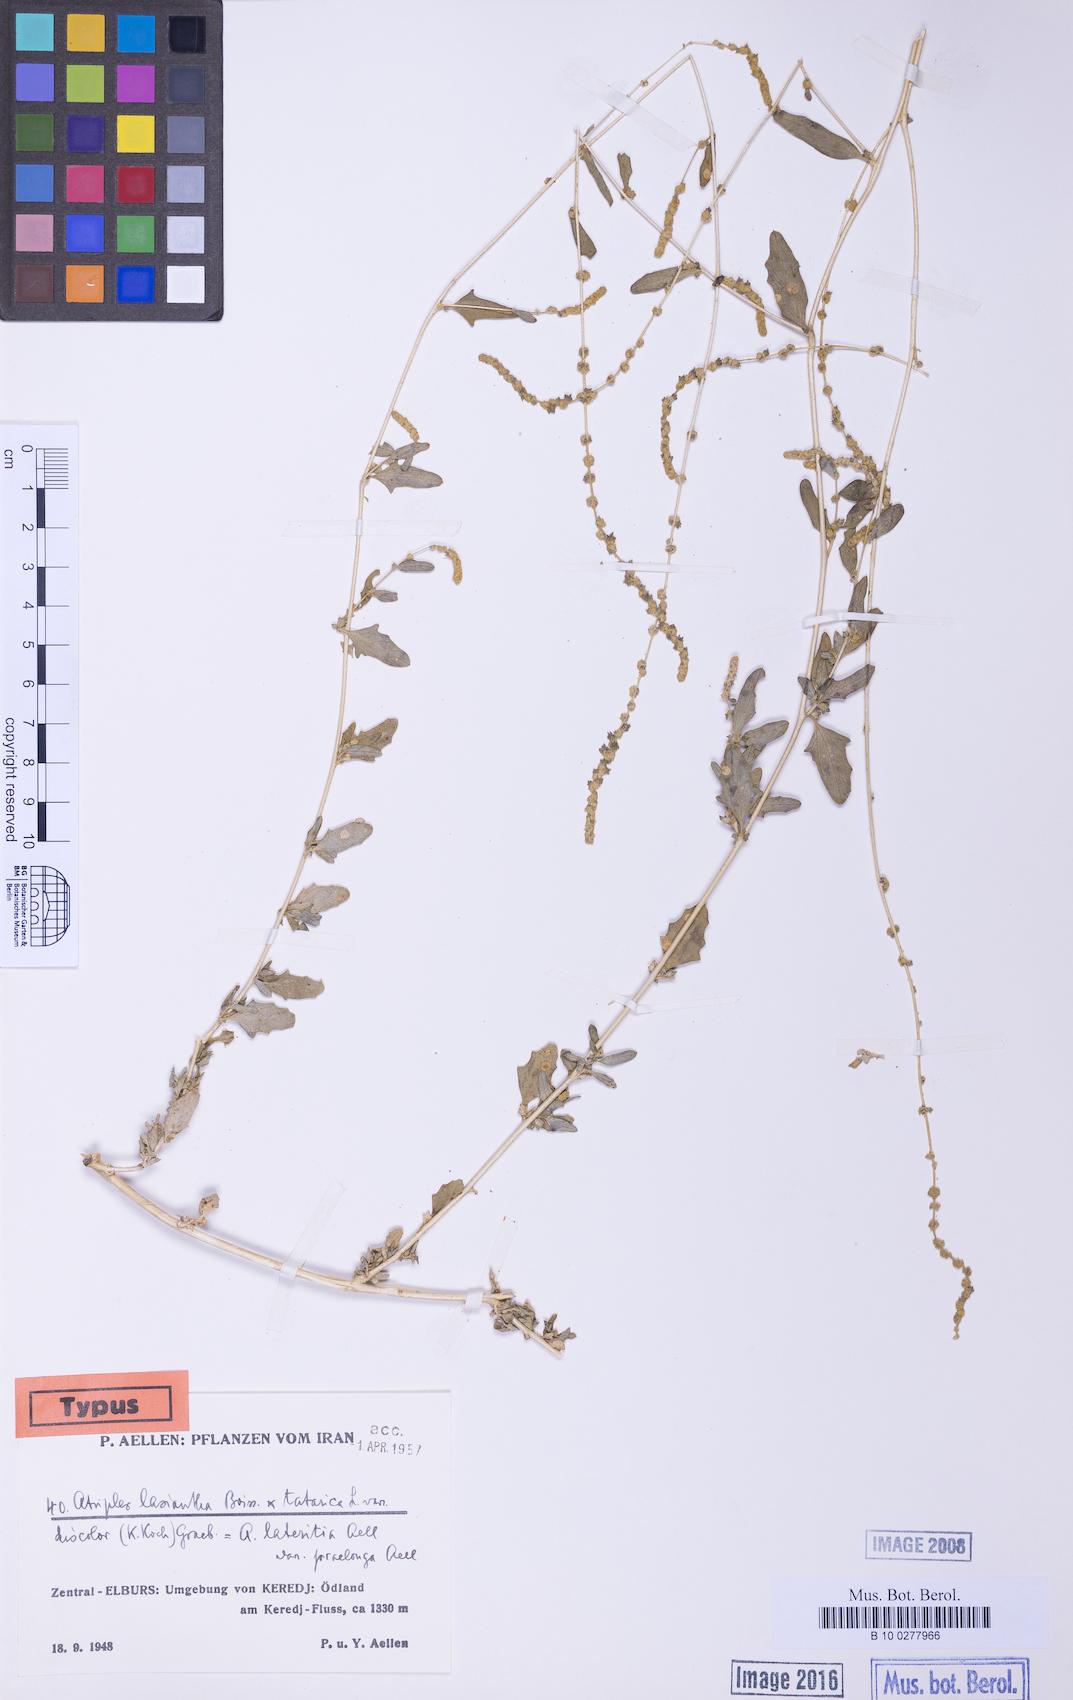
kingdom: Plantae
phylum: Tracheophyta
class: Magnoliopsida
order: Caryophyllales
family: Amaranthaceae
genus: Atriplex
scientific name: Atriplex lasiantha
